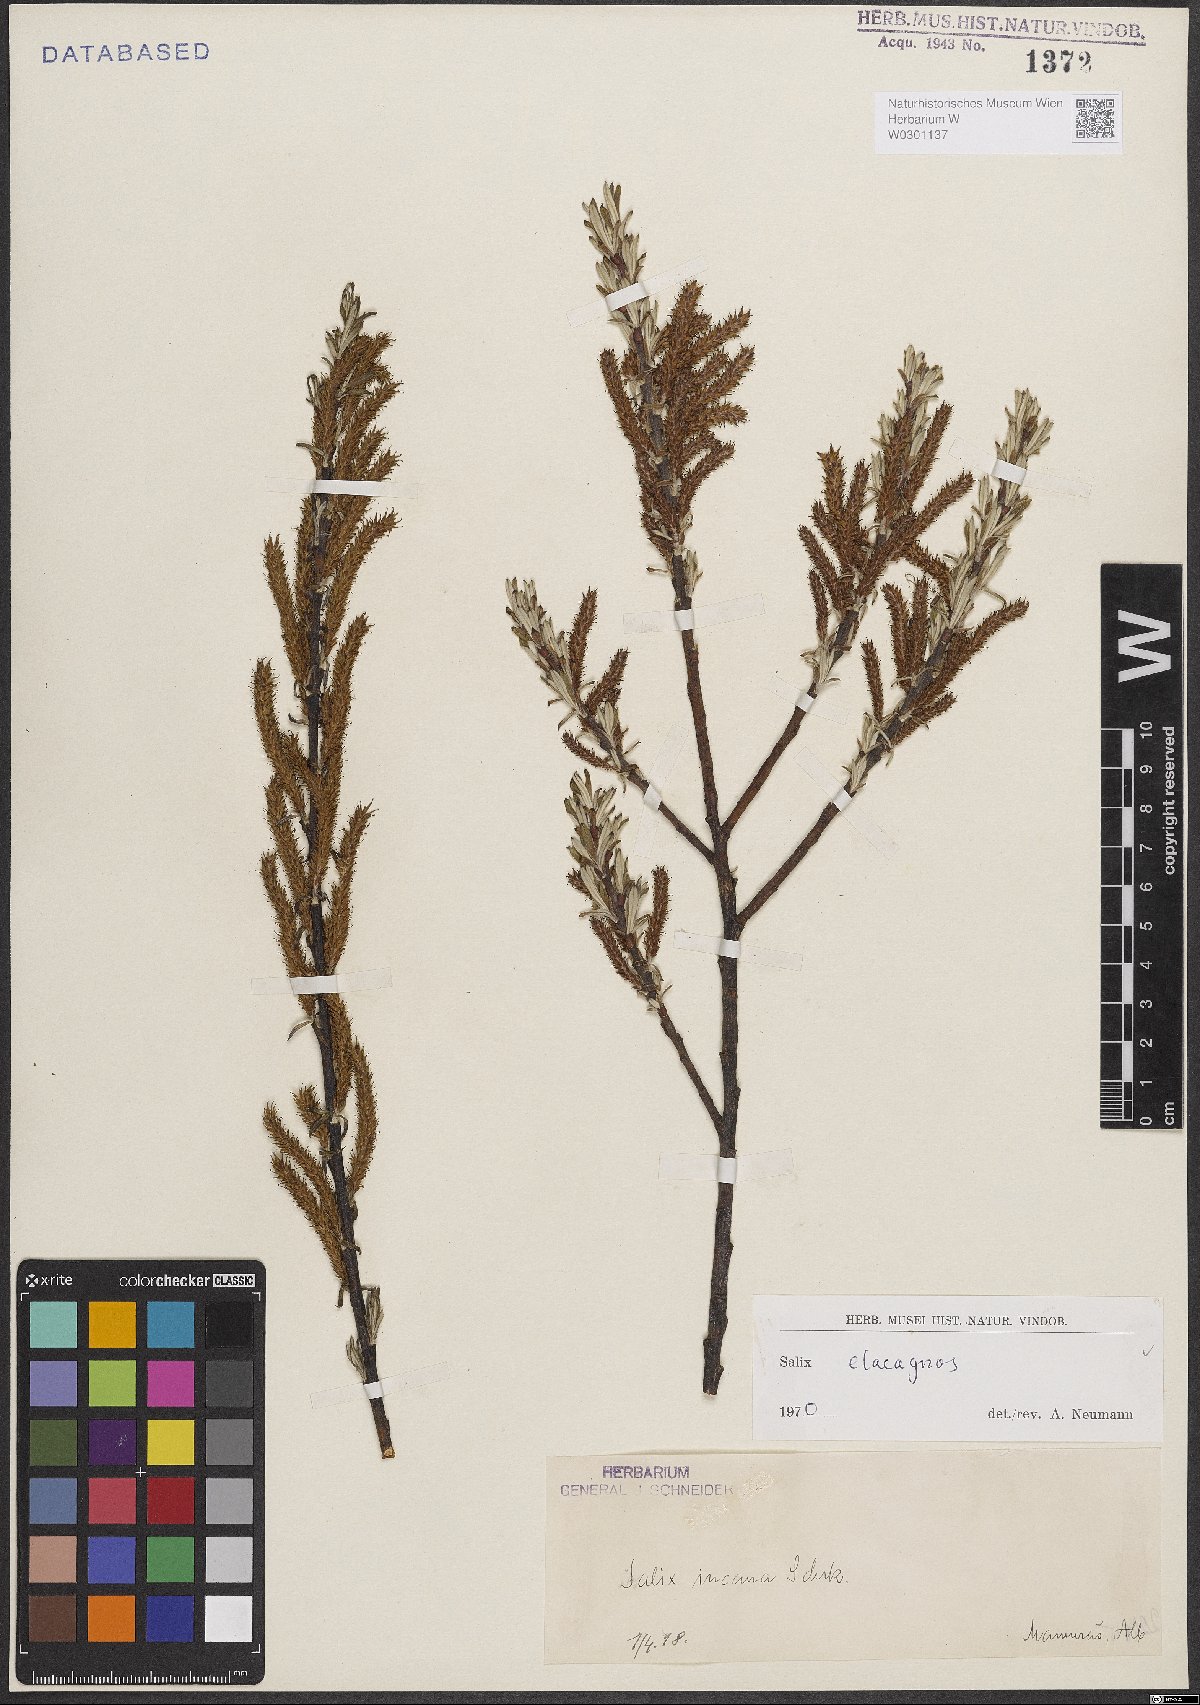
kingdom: Plantae
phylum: Tracheophyta
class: Magnoliopsida
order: Malpighiales
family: Salicaceae
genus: Salix
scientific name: Salix eleagnos
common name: Elaeagnus willow
